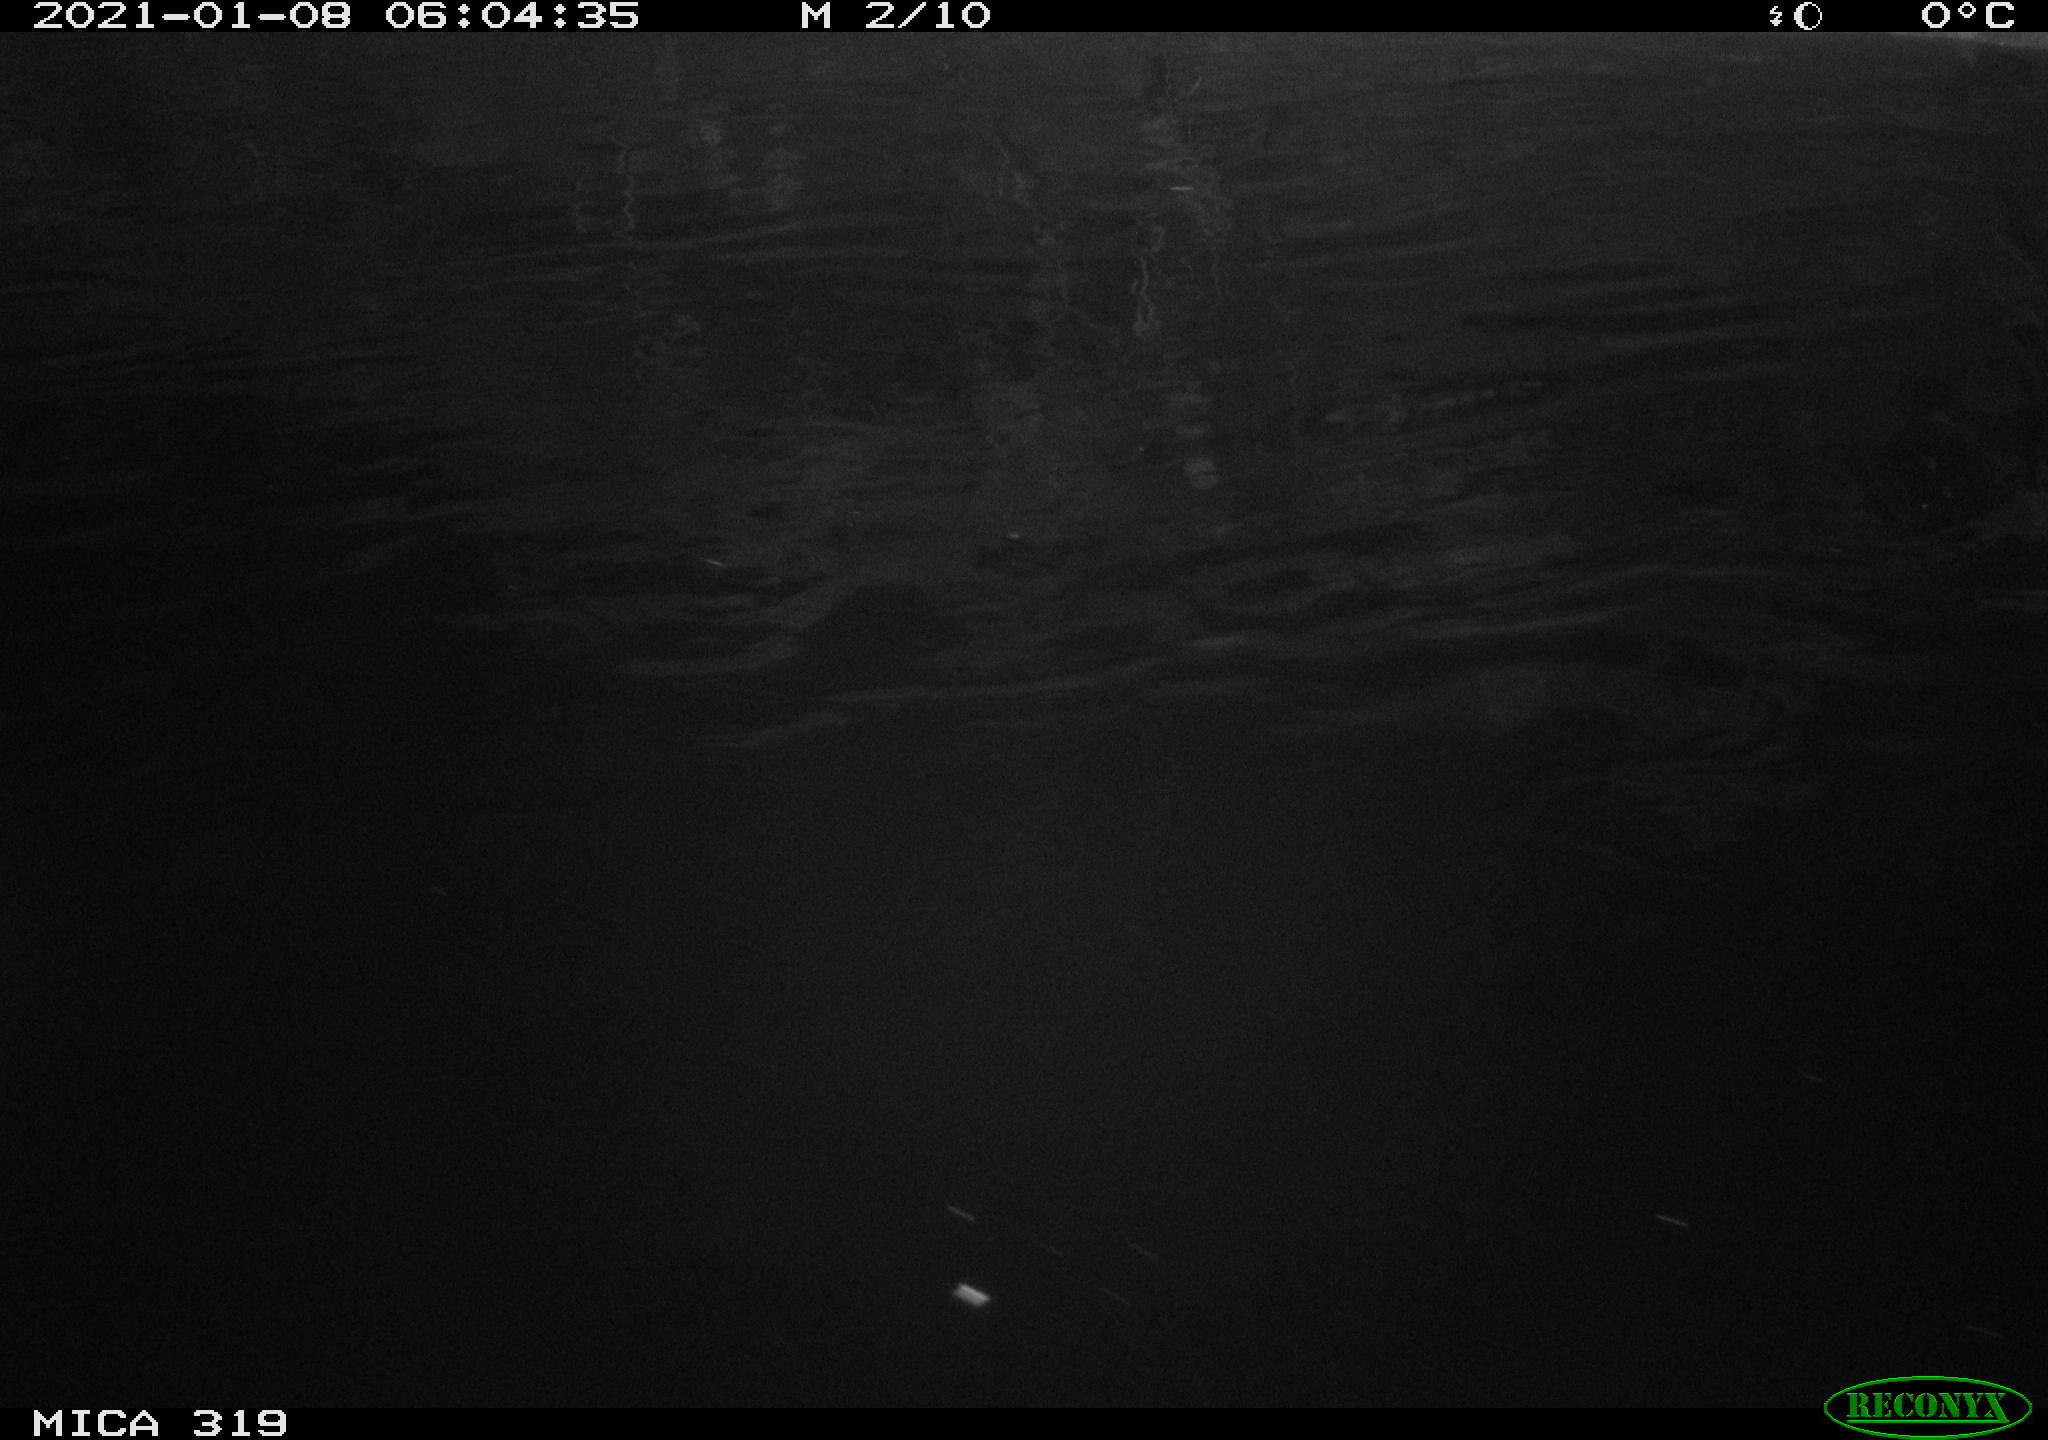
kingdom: Animalia
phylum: Chordata
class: Aves
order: Anseriformes
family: Anatidae
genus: Anas
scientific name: Anas platyrhynchos
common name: Mallard
